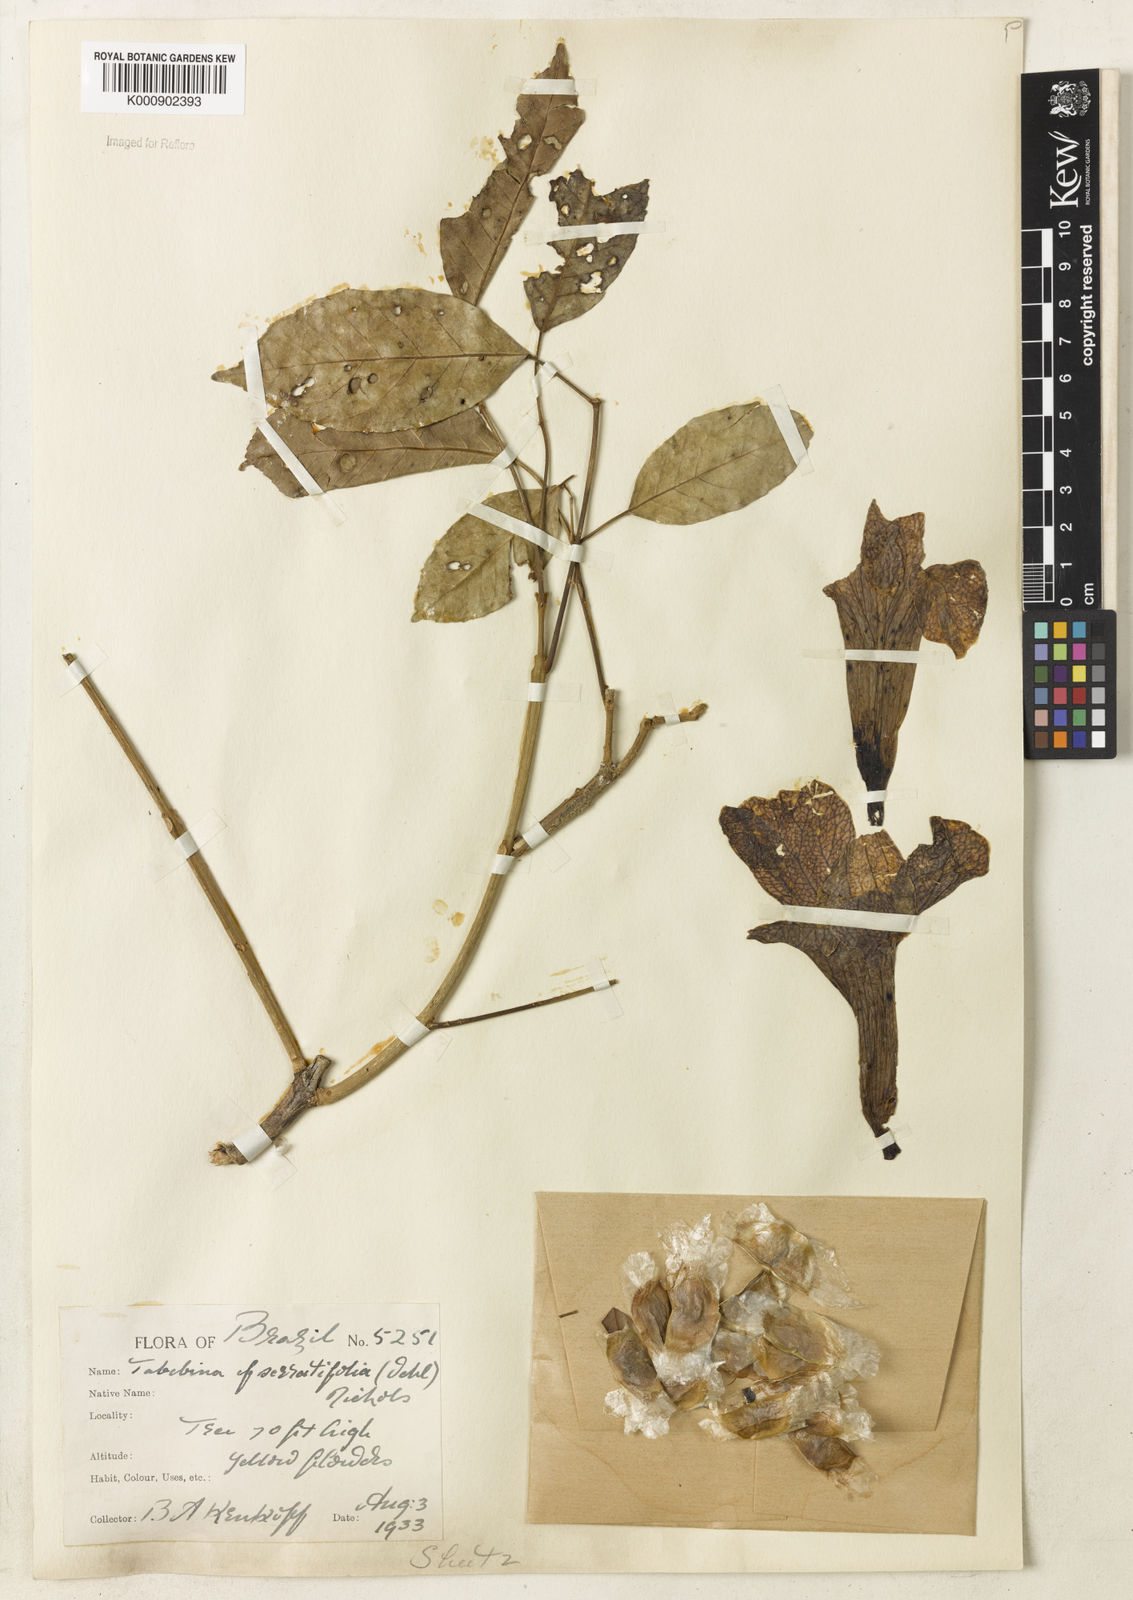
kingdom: Plantae
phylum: Tracheophyta
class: Magnoliopsida
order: Lamiales
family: Bignoniaceae
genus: Handroanthus
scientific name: Handroanthus serratifolius
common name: Yellow ipe
